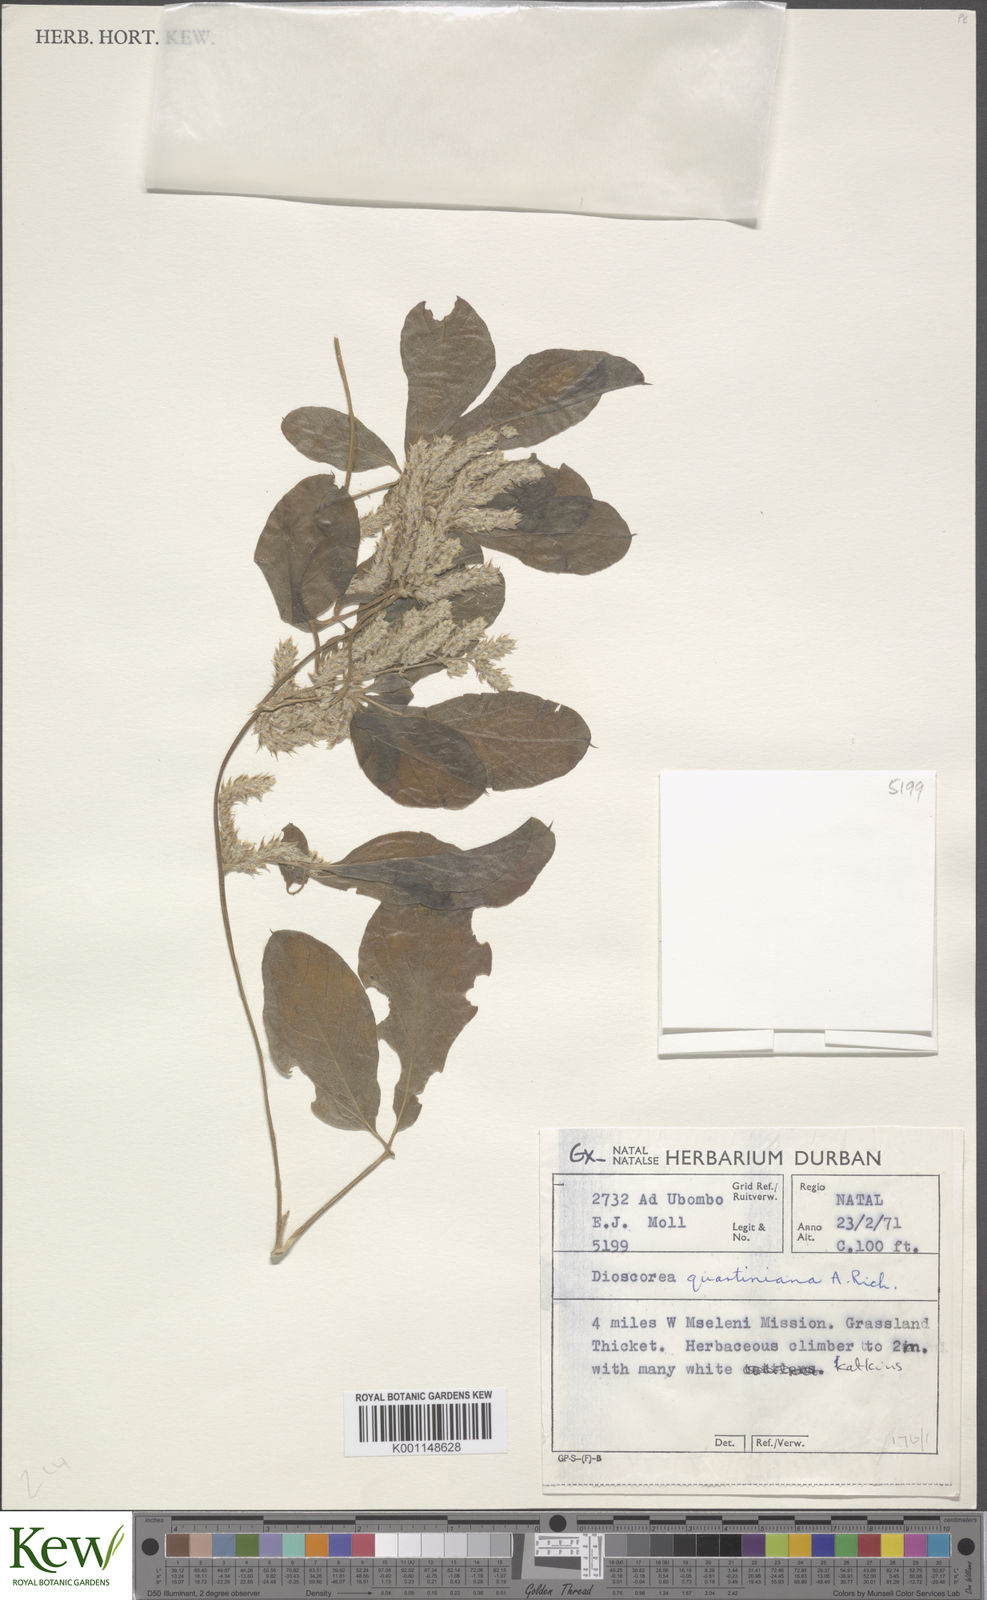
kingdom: Plantae
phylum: Tracheophyta
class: Liliopsida
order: Dioscoreales
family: Dioscoreaceae
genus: Dioscorea
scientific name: Dioscorea quartiniana
